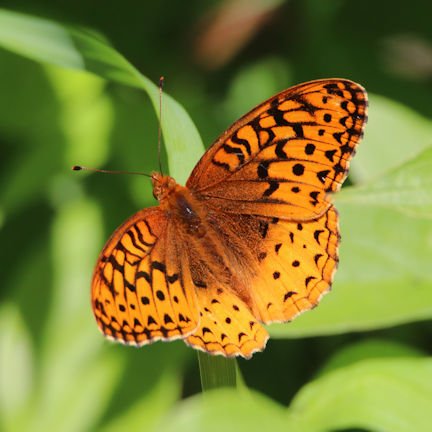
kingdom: Animalia
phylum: Arthropoda
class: Insecta
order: Lepidoptera
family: Nymphalidae
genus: Speyeria
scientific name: Speyeria cybele
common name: Great Spangled Fritillary
